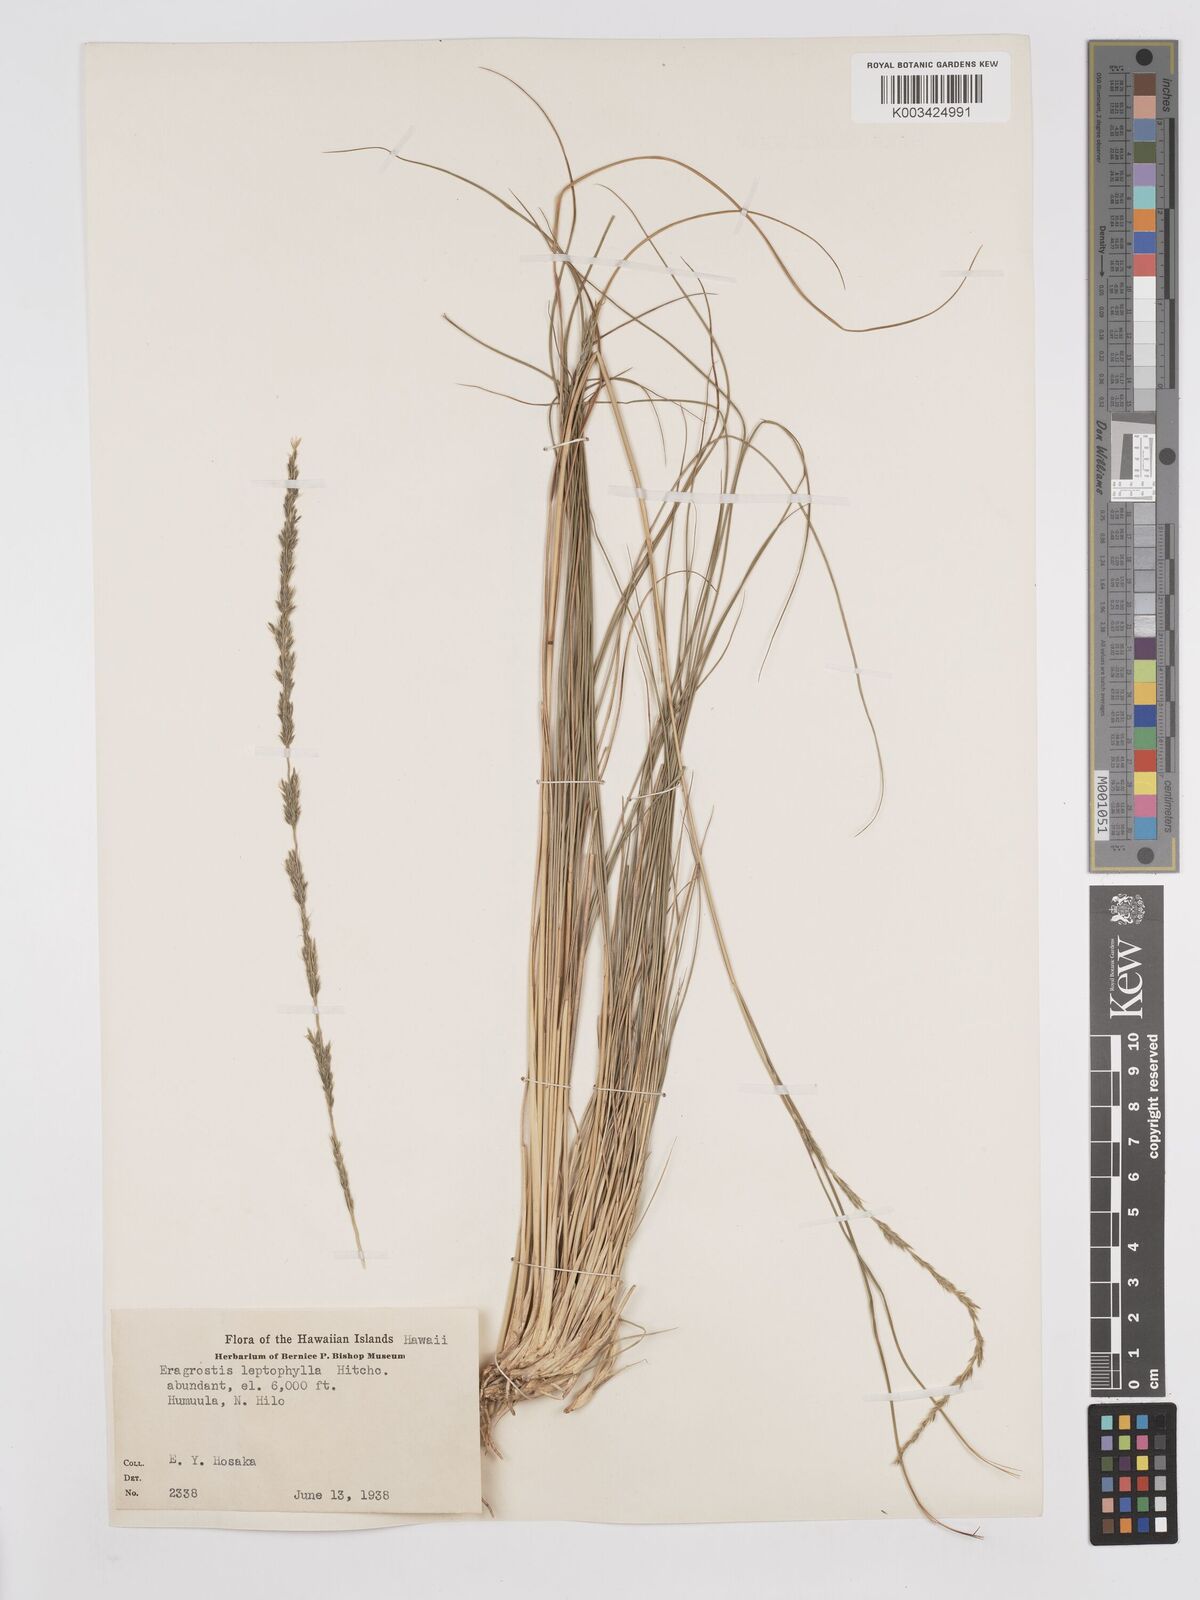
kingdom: Plantae
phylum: Tracheophyta
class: Liliopsida
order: Poales
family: Poaceae
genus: Eragrostis
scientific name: Eragrostis leptophylla
